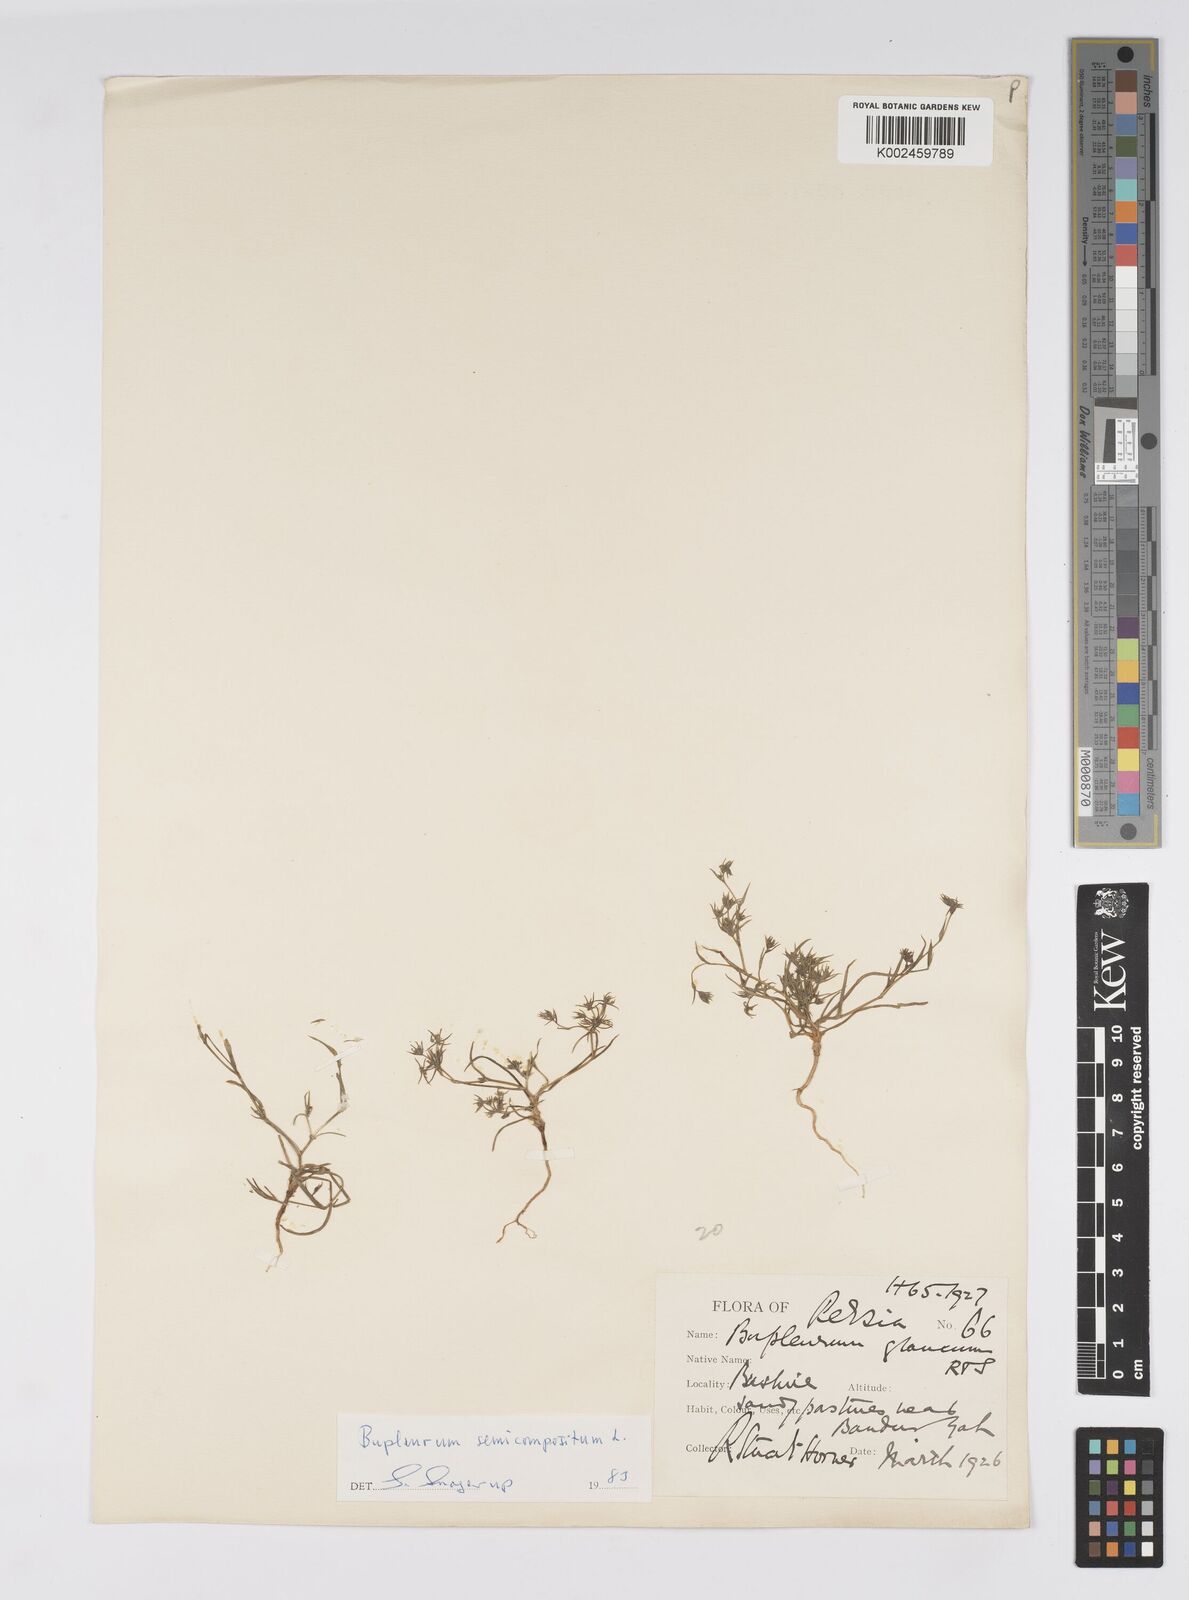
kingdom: Plantae
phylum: Tracheophyta
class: Magnoliopsida
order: Apiales
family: Apiaceae
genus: Bupleurum
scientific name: Bupleurum semicompositum
